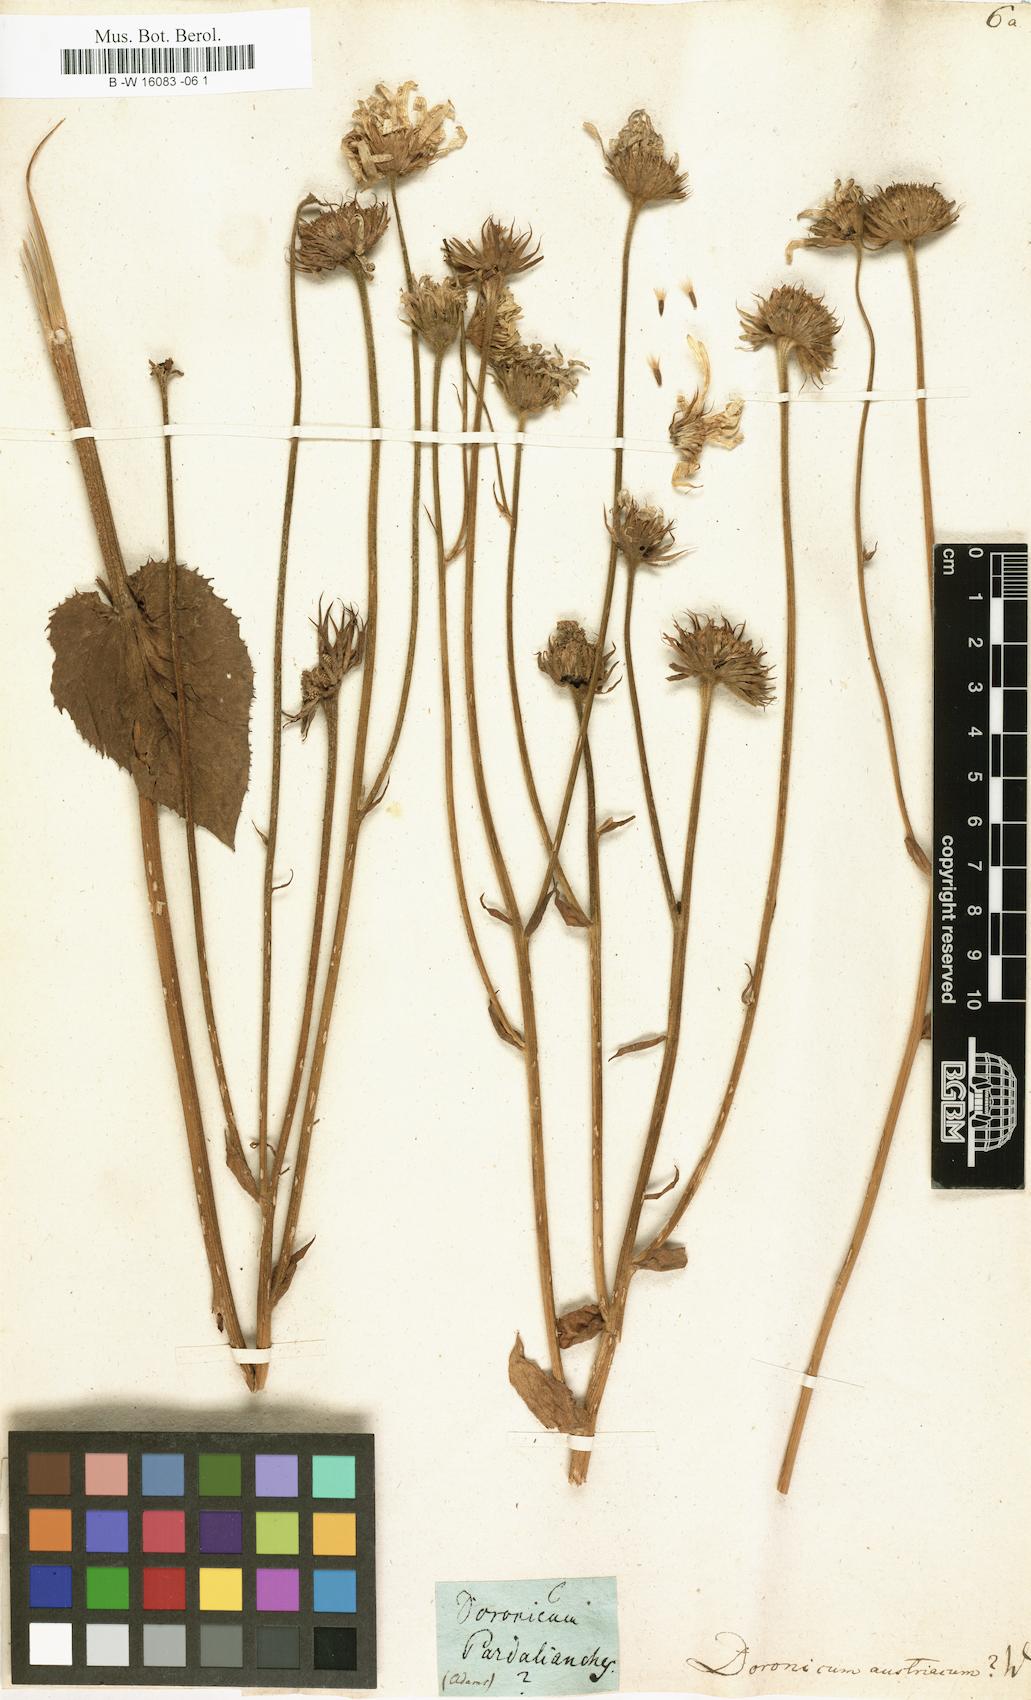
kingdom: Plantae
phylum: Tracheophyta
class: Magnoliopsida
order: Asterales
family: Asteraceae
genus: Doronicum
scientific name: Doronicum austriacum
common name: Austrian leopard's-bane
